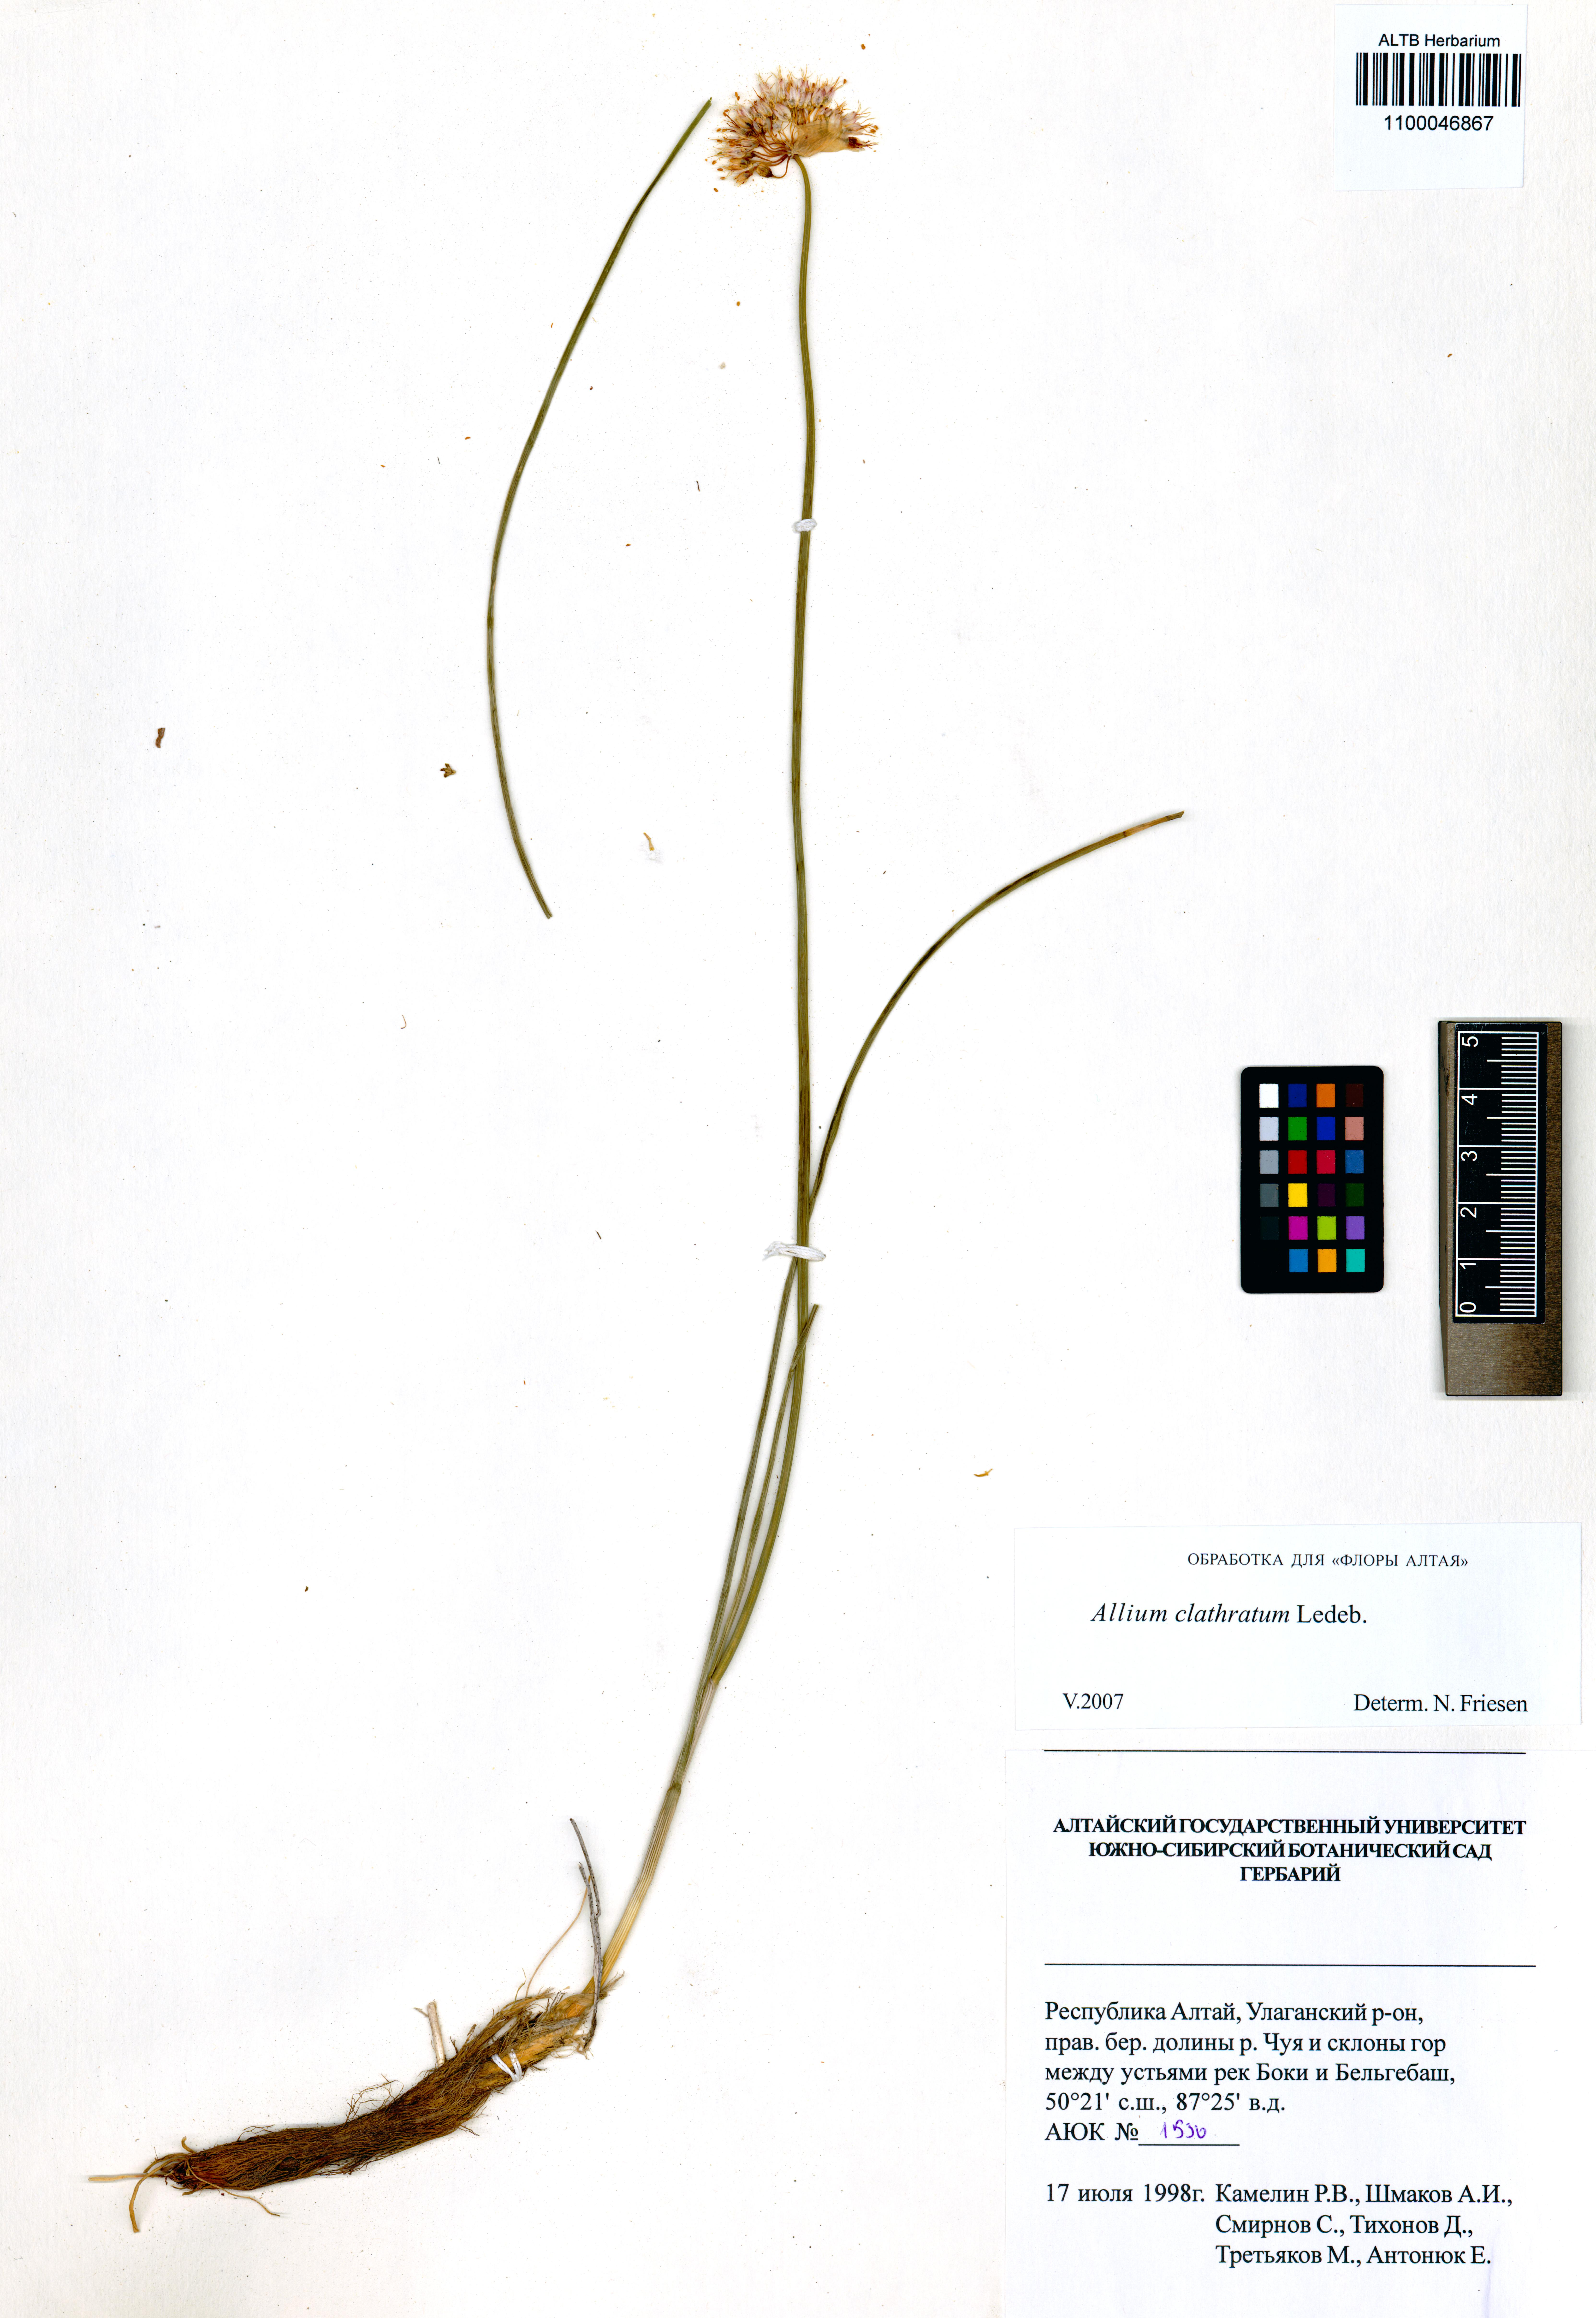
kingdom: Plantae
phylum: Tracheophyta
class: Liliopsida
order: Asparagales
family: Amaryllidaceae
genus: Allium
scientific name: Allium clathratum
